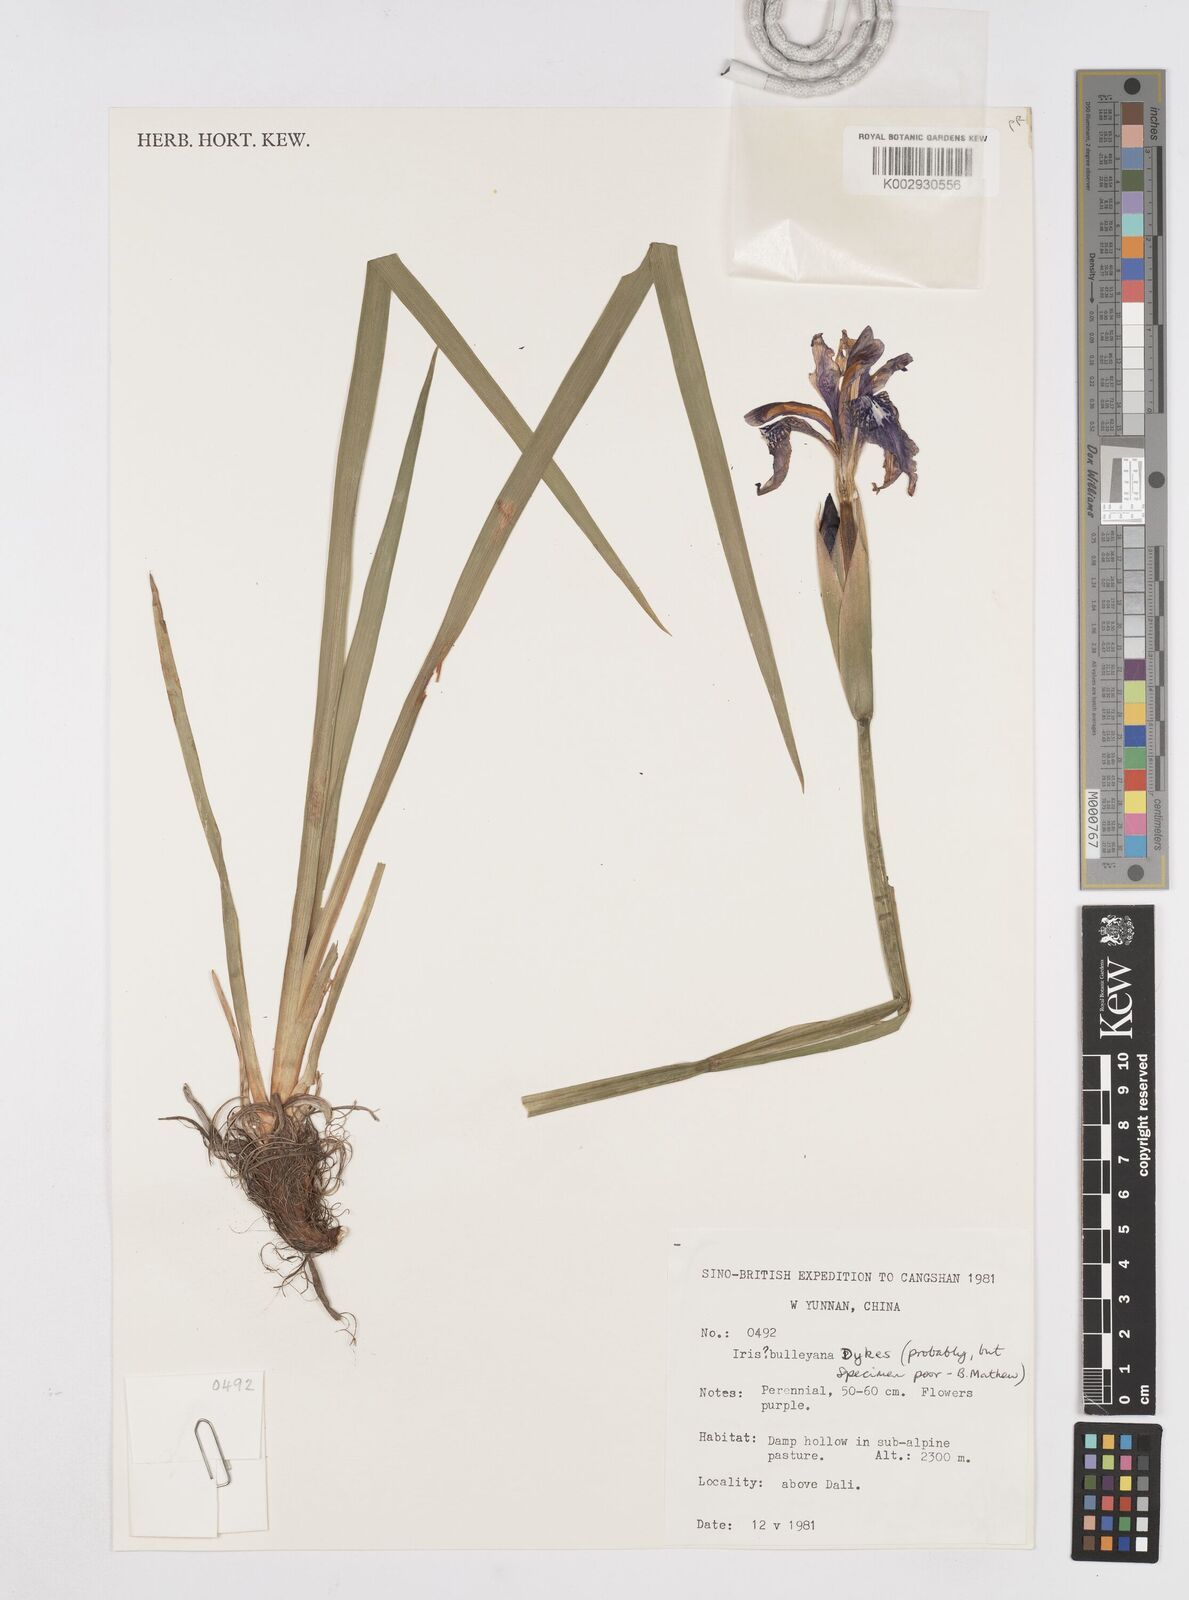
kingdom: Plantae
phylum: Tracheophyta
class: Liliopsida
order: Asparagales
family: Iridaceae
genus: Iris
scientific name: Iris bulleyana
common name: Southwest iris
